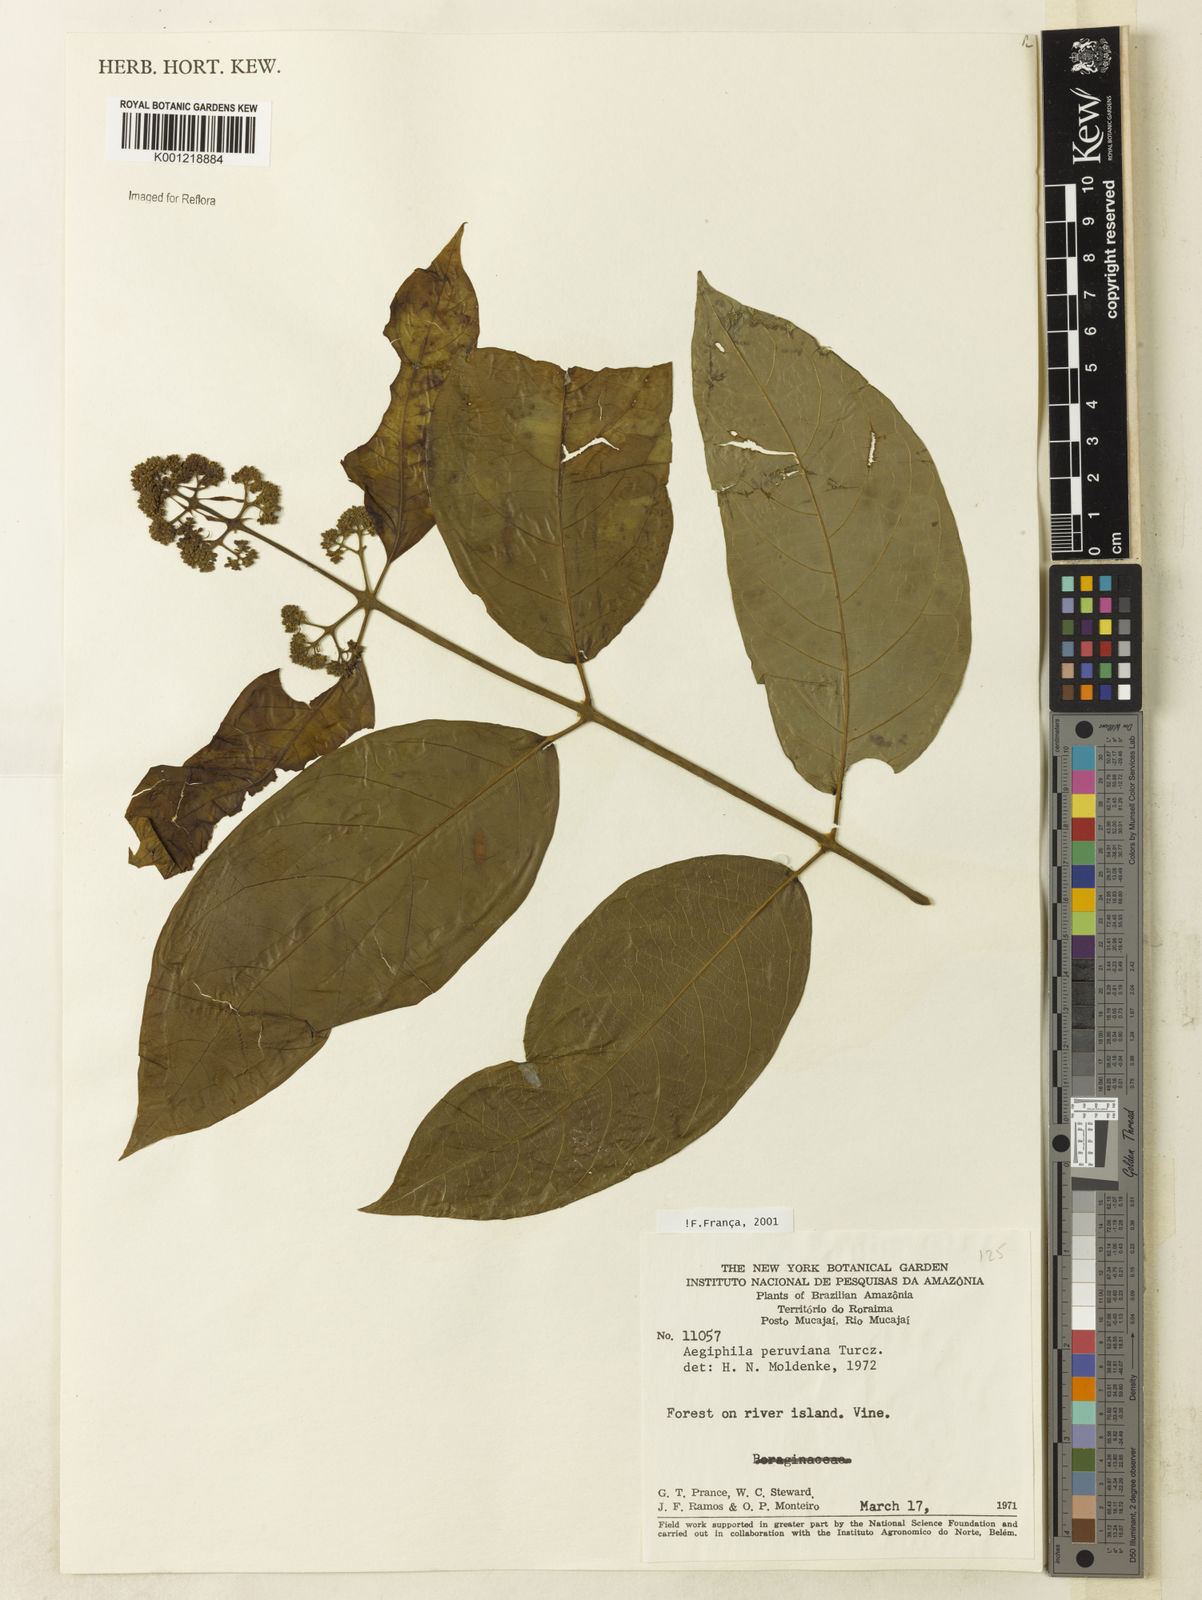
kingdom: Plantae
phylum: Tracheophyta
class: Magnoliopsida
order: Lamiales
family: Lamiaceae
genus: Aegiphila
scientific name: Aegiphila peruviana
